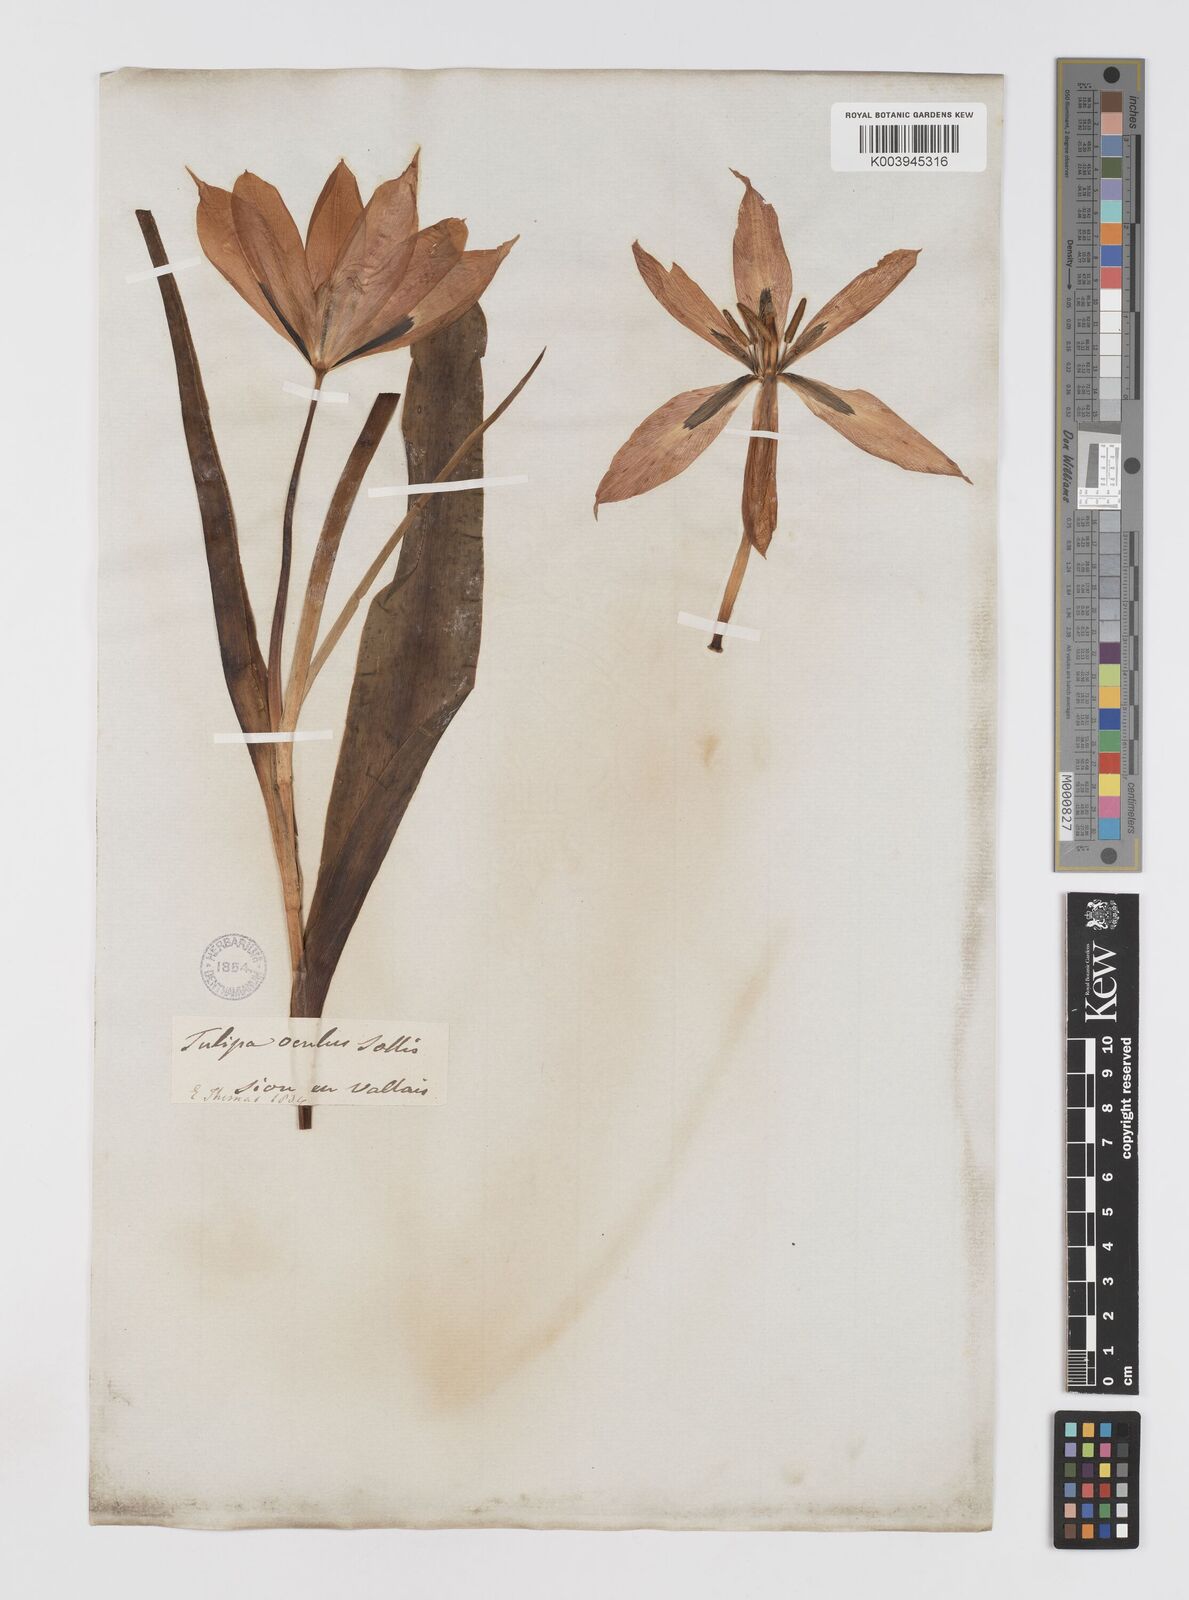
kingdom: Plantae
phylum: Tracheophyta
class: Liliopsida
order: Liliales
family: Liliaceae
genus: Tulipa
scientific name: Tulipa agenensis
